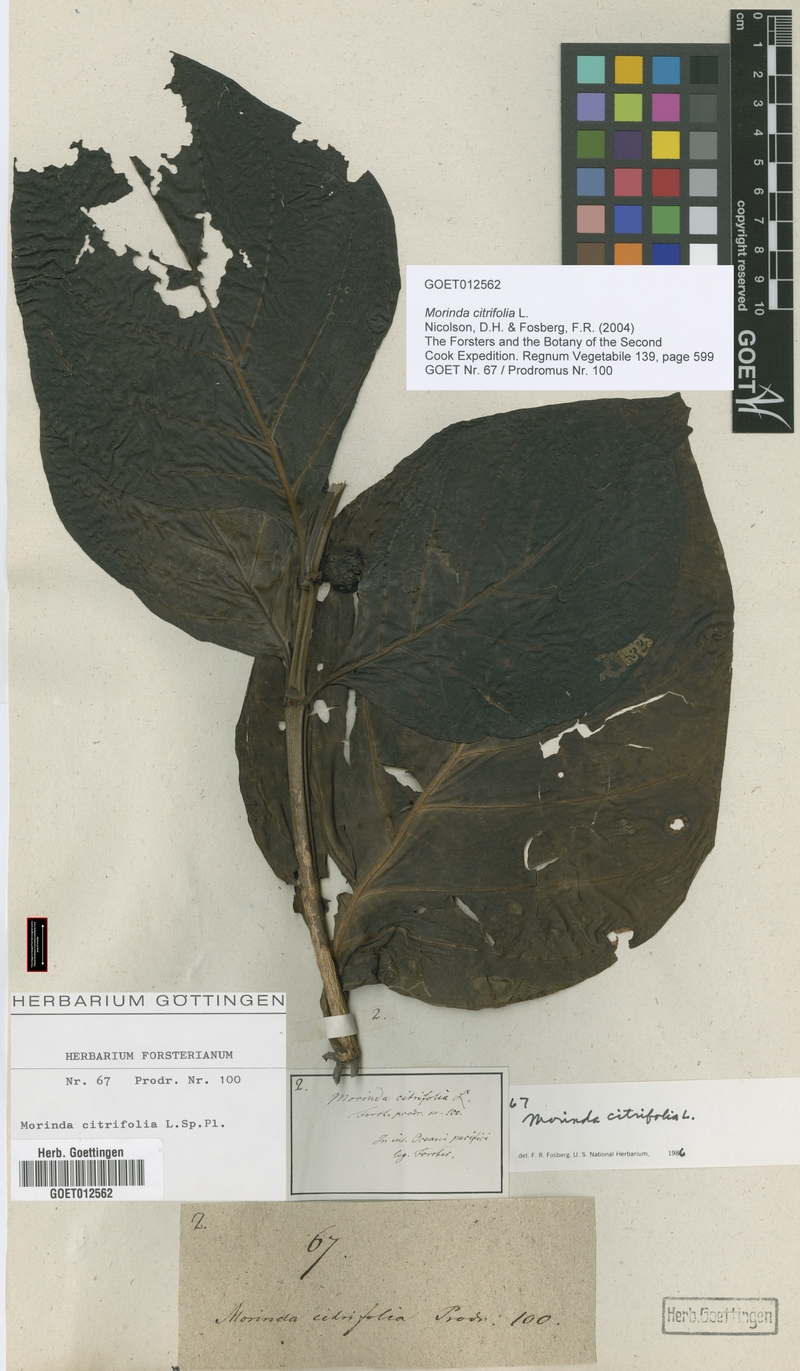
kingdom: Plantae
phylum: Tracheophyta
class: Magnoliopsida
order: Gentianales
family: Rubiaceae
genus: Morinda
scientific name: Morinda citrifolia
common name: Indian-mulberry
